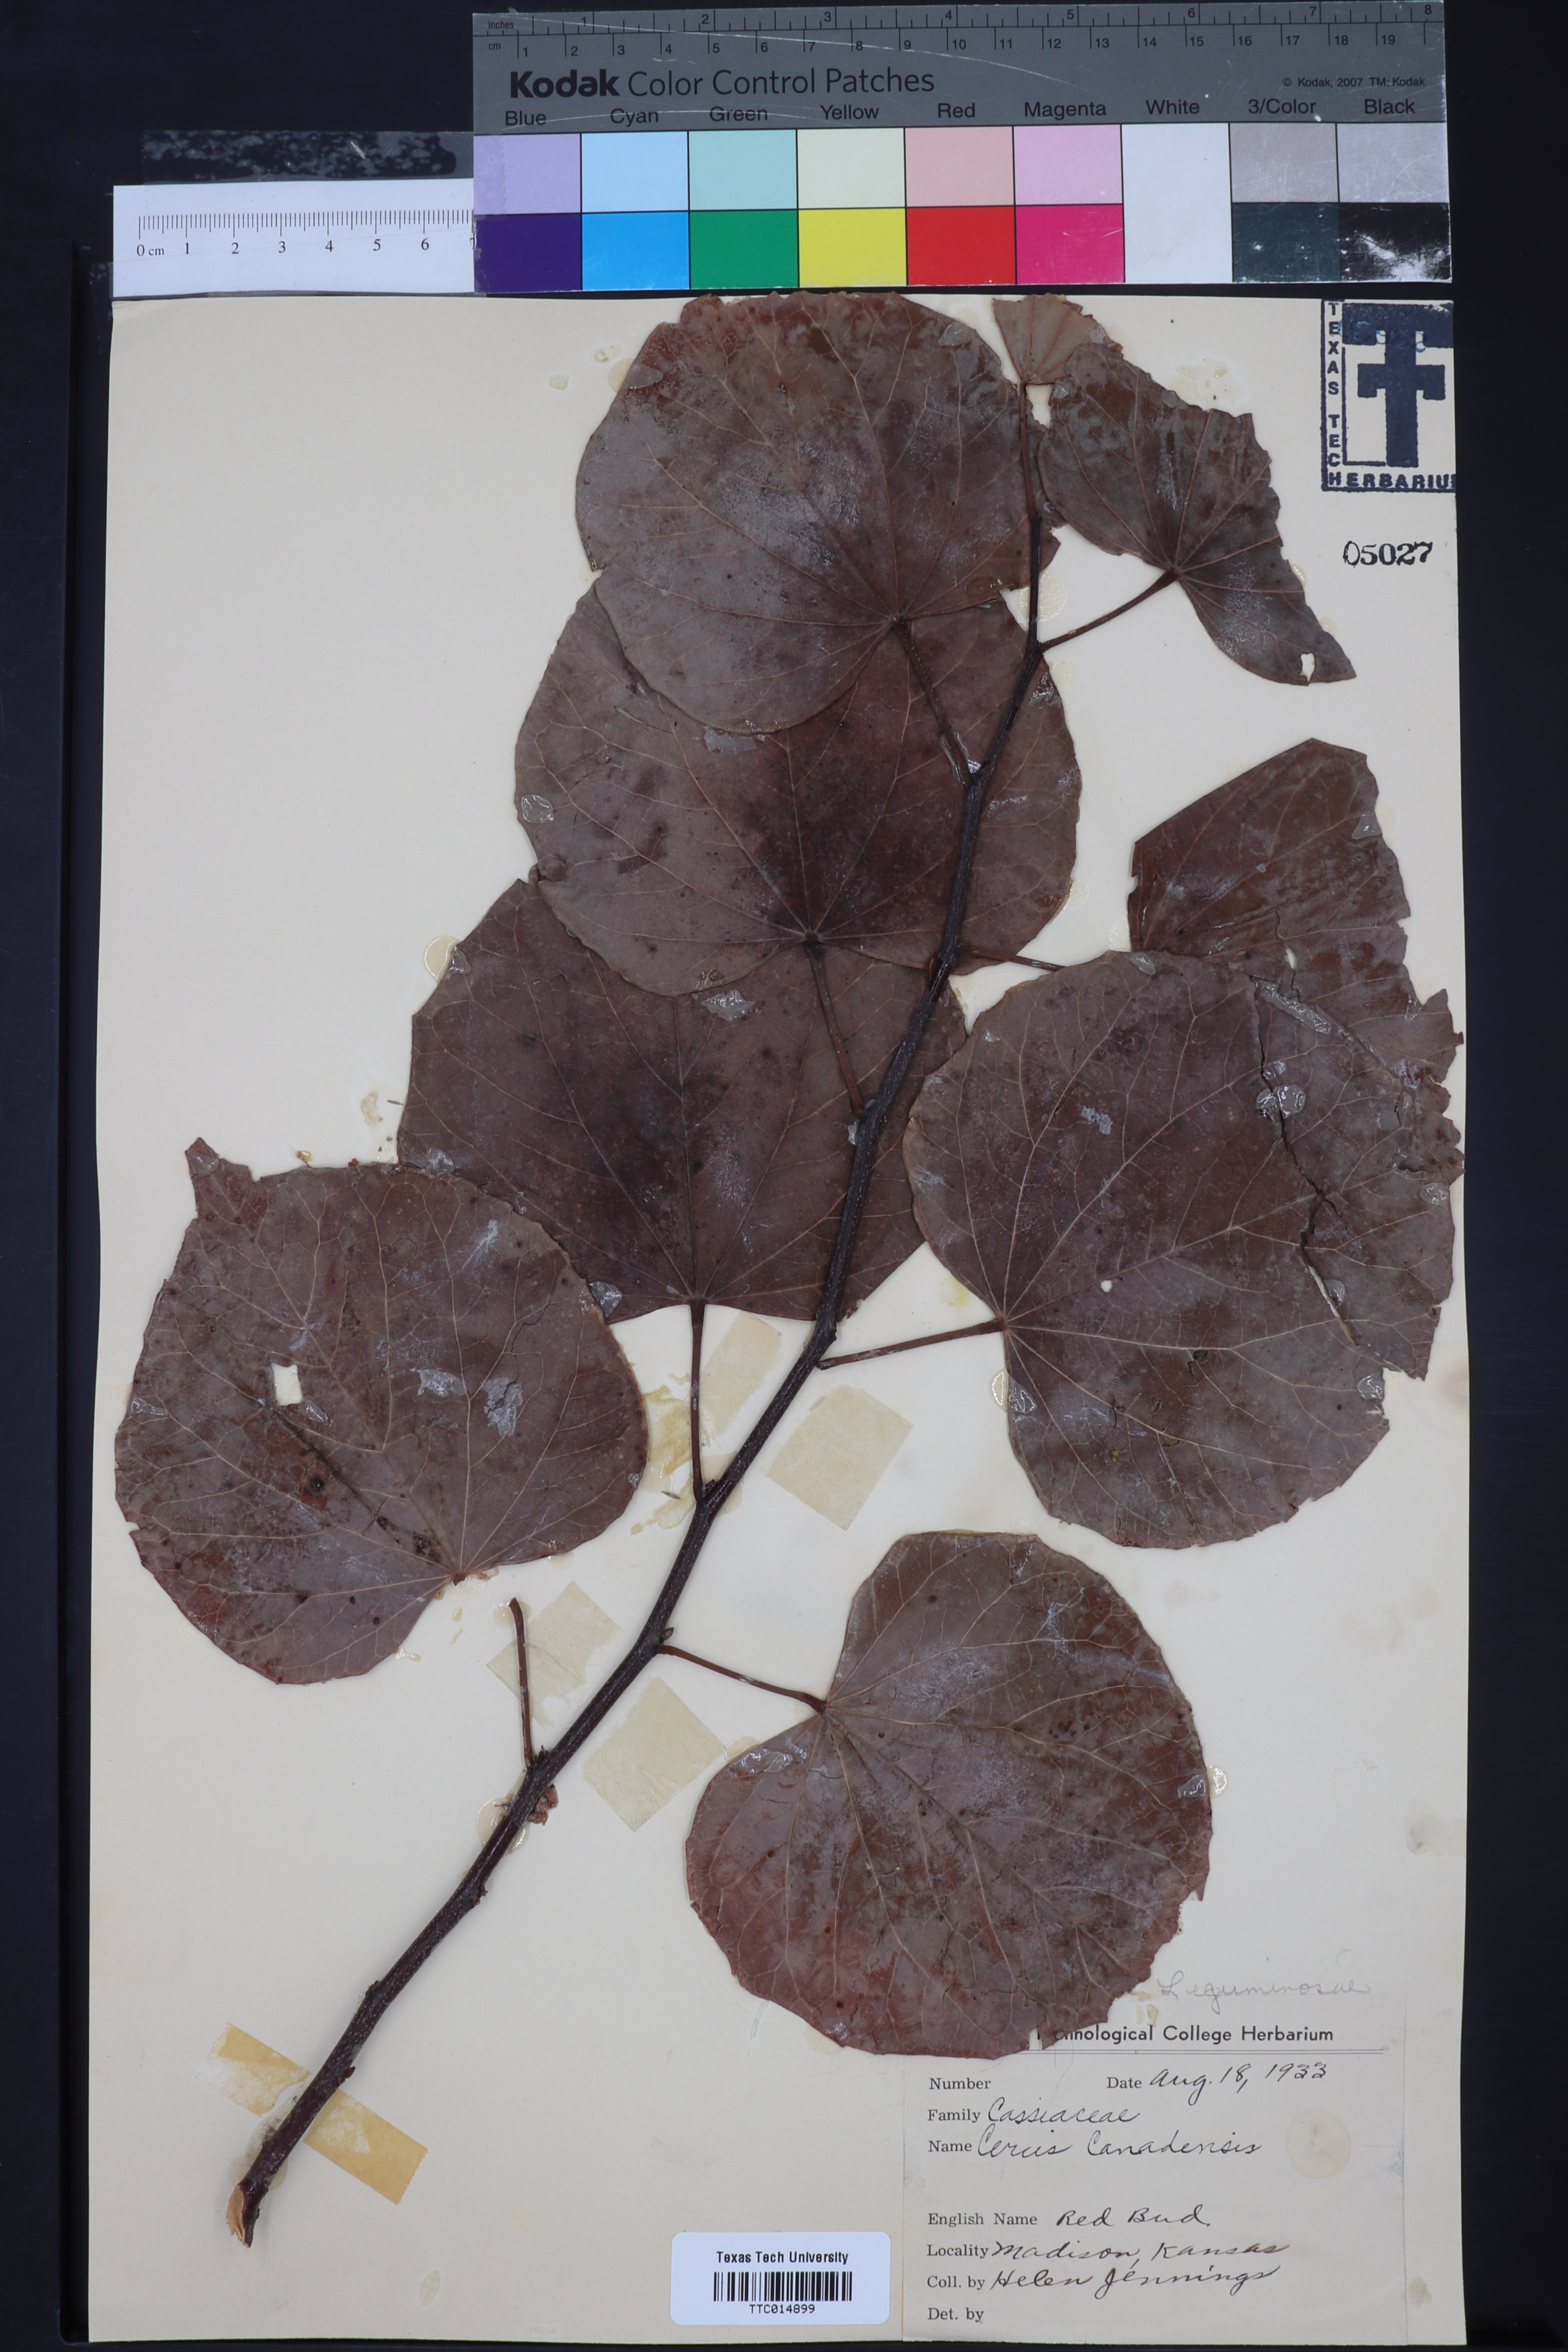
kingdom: Plantae
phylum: Tracheophyta
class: Magnoliopsida
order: Fabales
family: Fabaceae
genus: Cercis
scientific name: Cercis canadensis
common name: Eastern redbud
